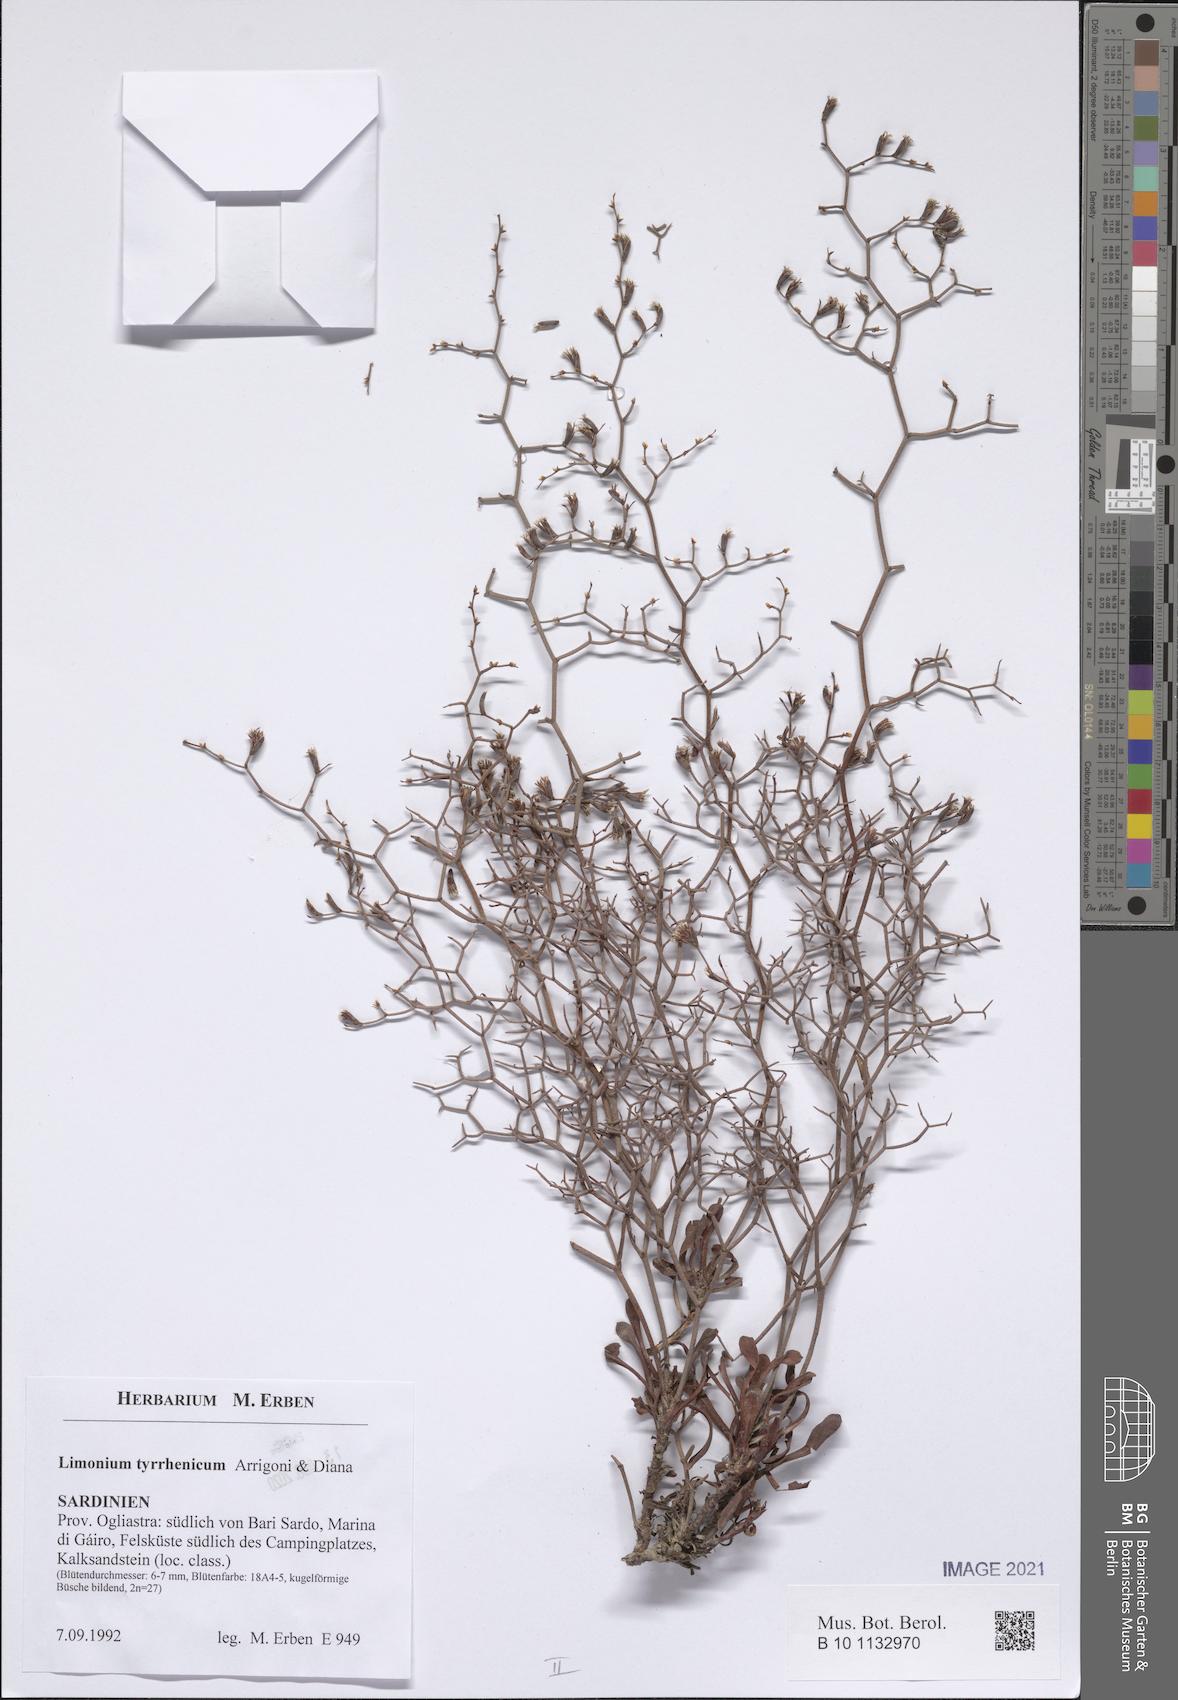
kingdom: Plantae
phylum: Tracheophyta
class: Magnoliopsida
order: Caryophyllales
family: Plumbaginaceae
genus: Limonium
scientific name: Limonium tyrrhenicum
